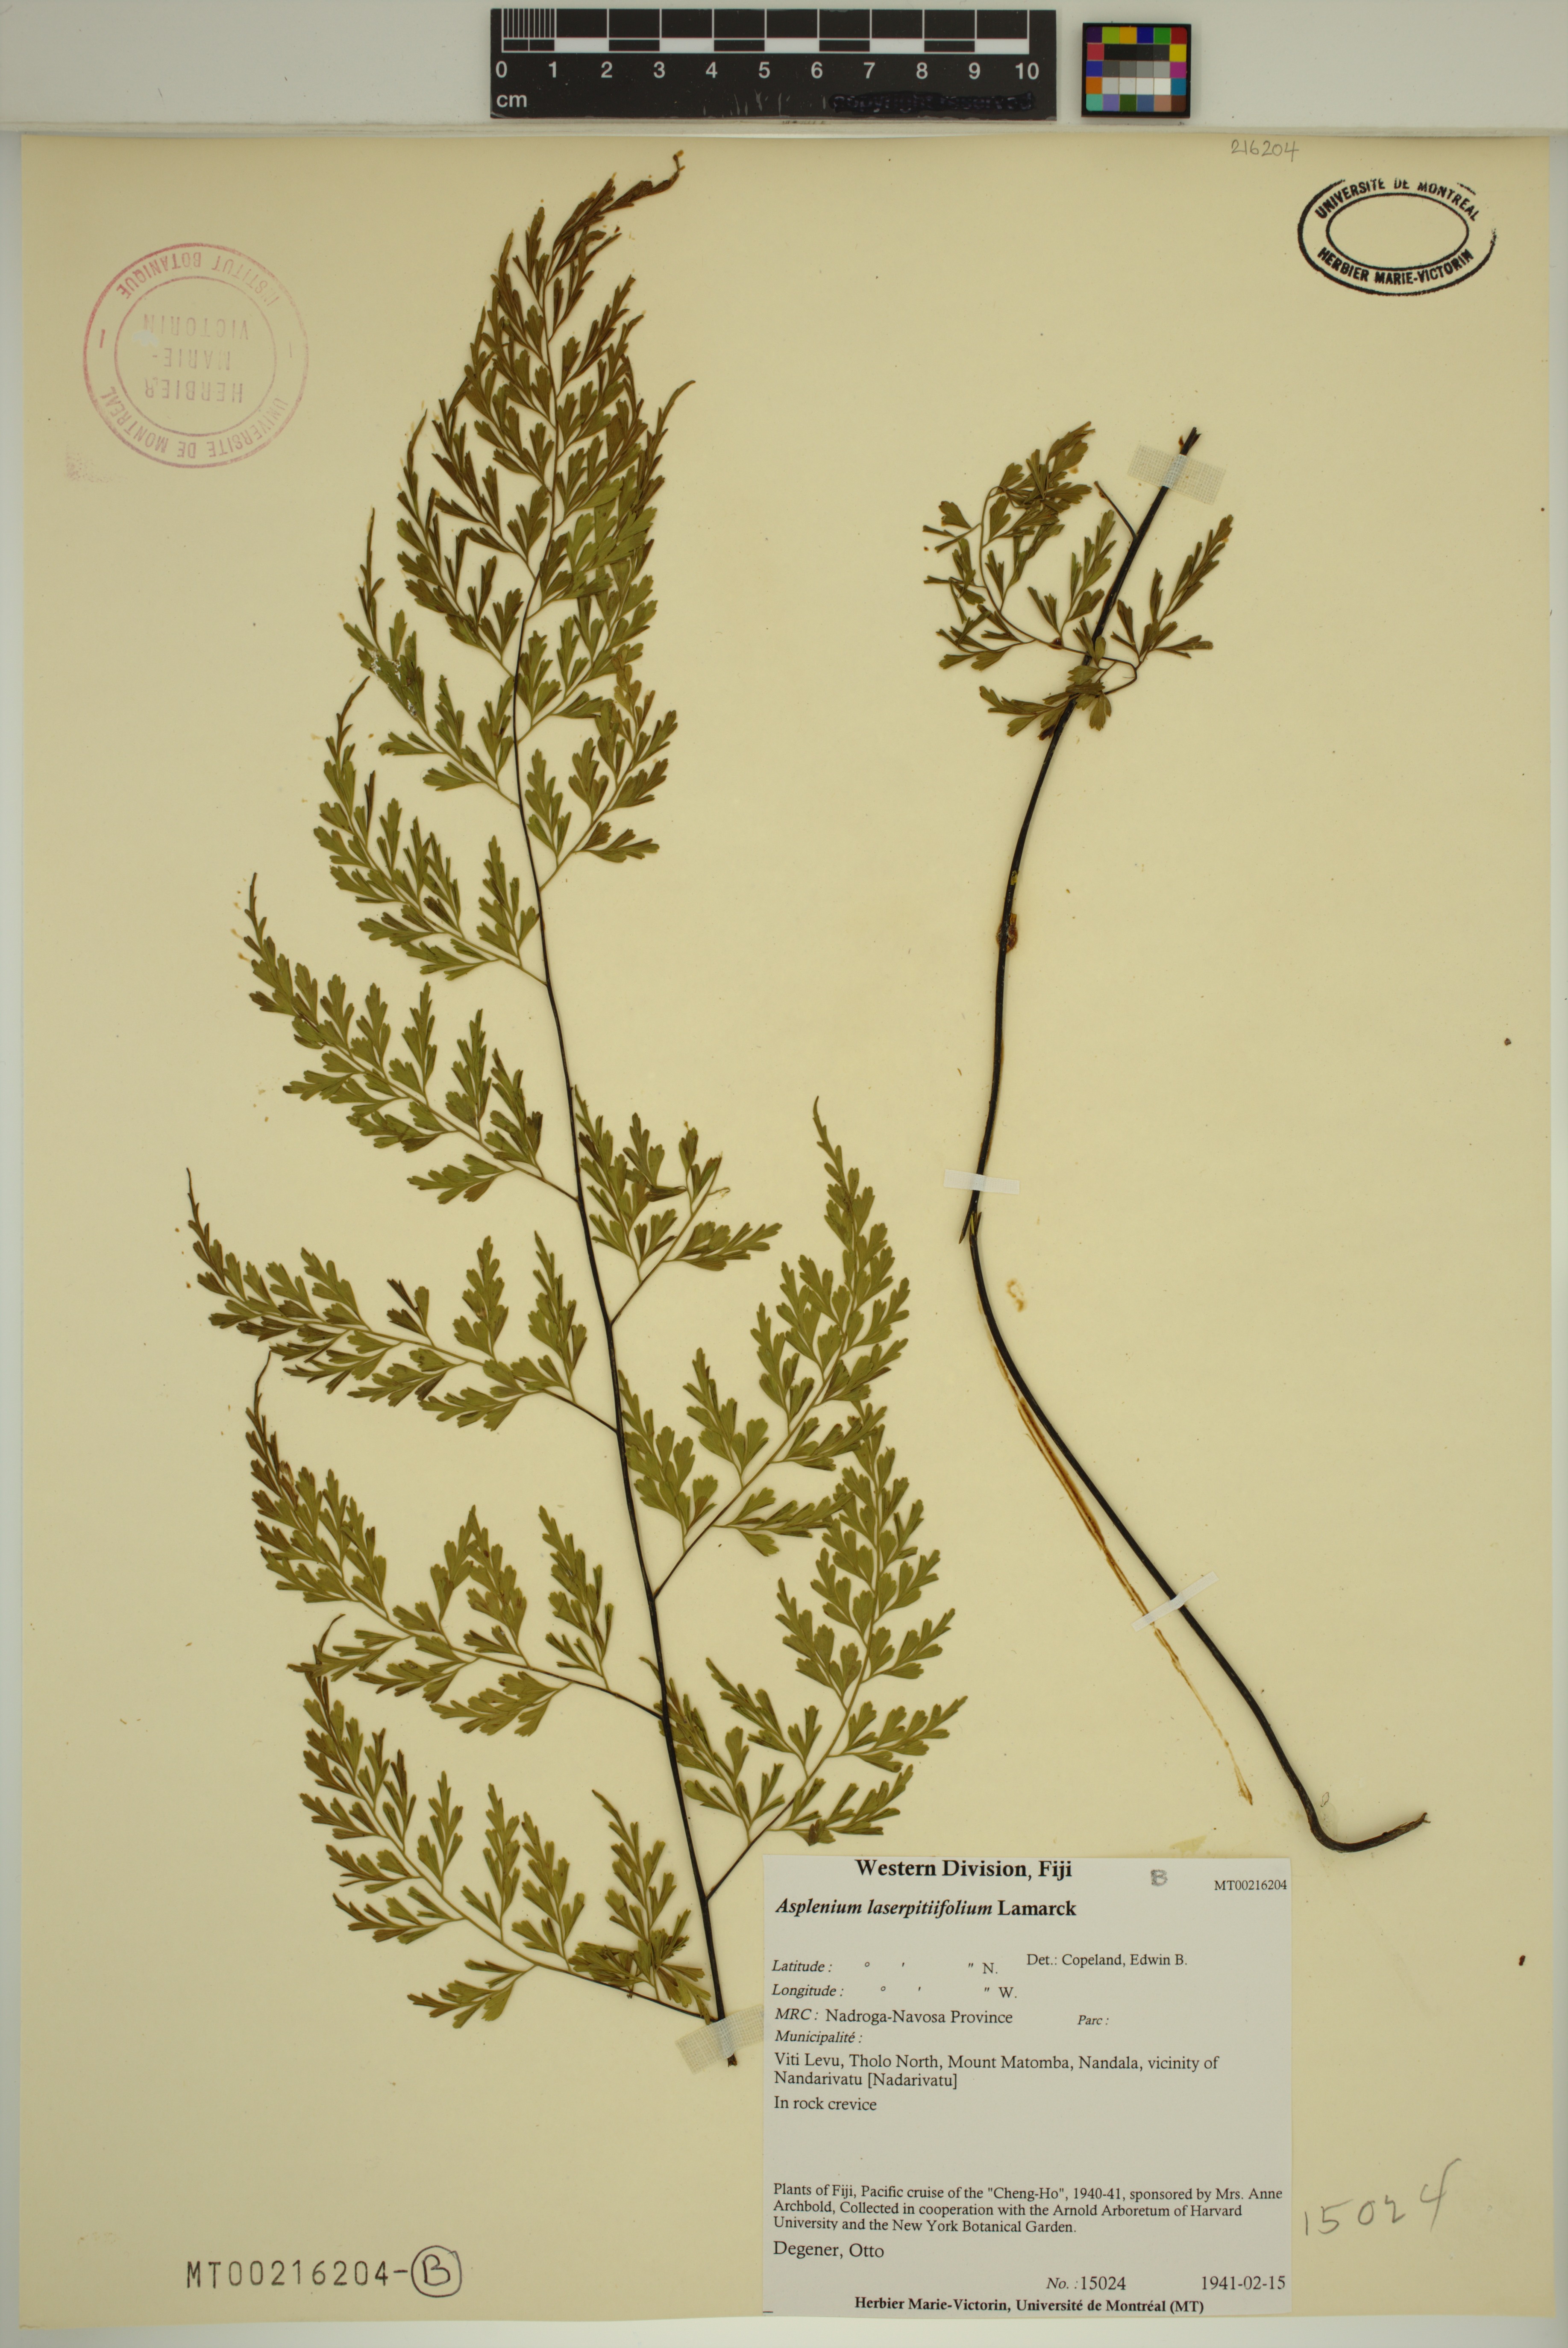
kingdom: Plantae
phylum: Tracheophyta
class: Polypodiopsida
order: Polypodiales
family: Aspleniaceae
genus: Asplenium
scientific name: Asplenium laserpitiifolium
